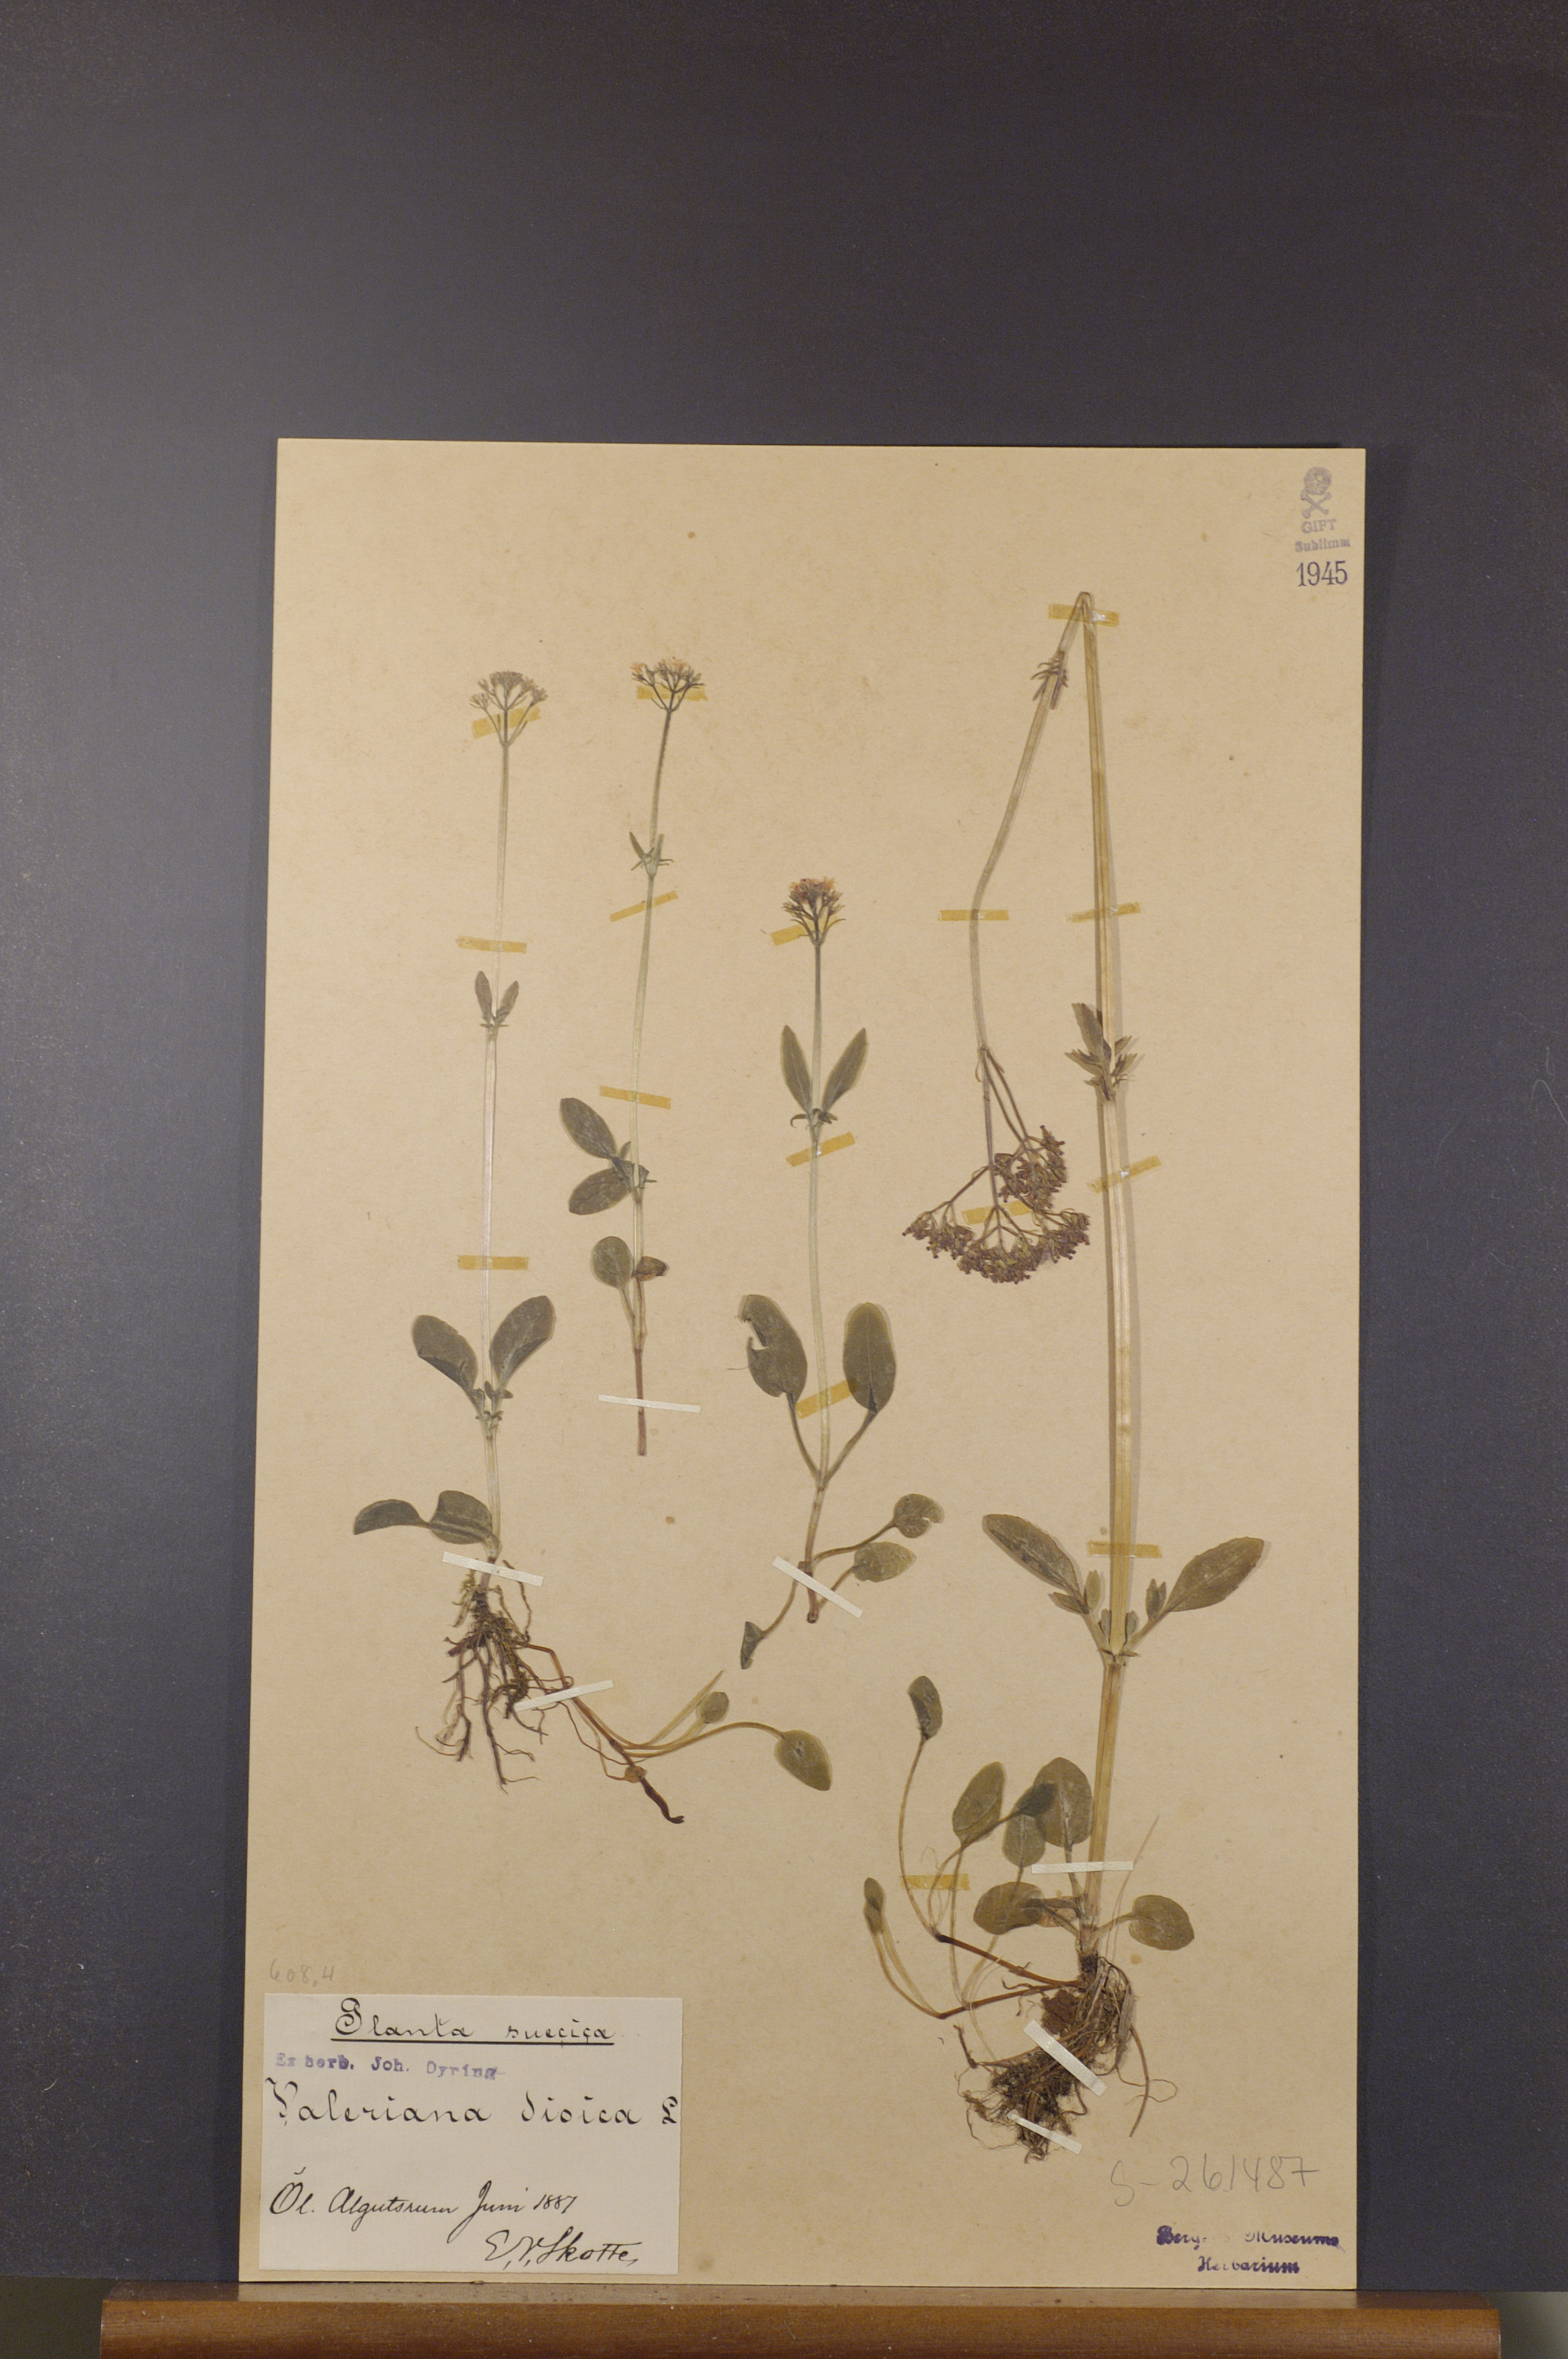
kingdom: Plantae
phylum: Tracheophyta
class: Magnoliopsida
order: Dipsacales
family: Caprifoliaceae
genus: Valeriana
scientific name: Valeriana dioica
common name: Marsh valerian
